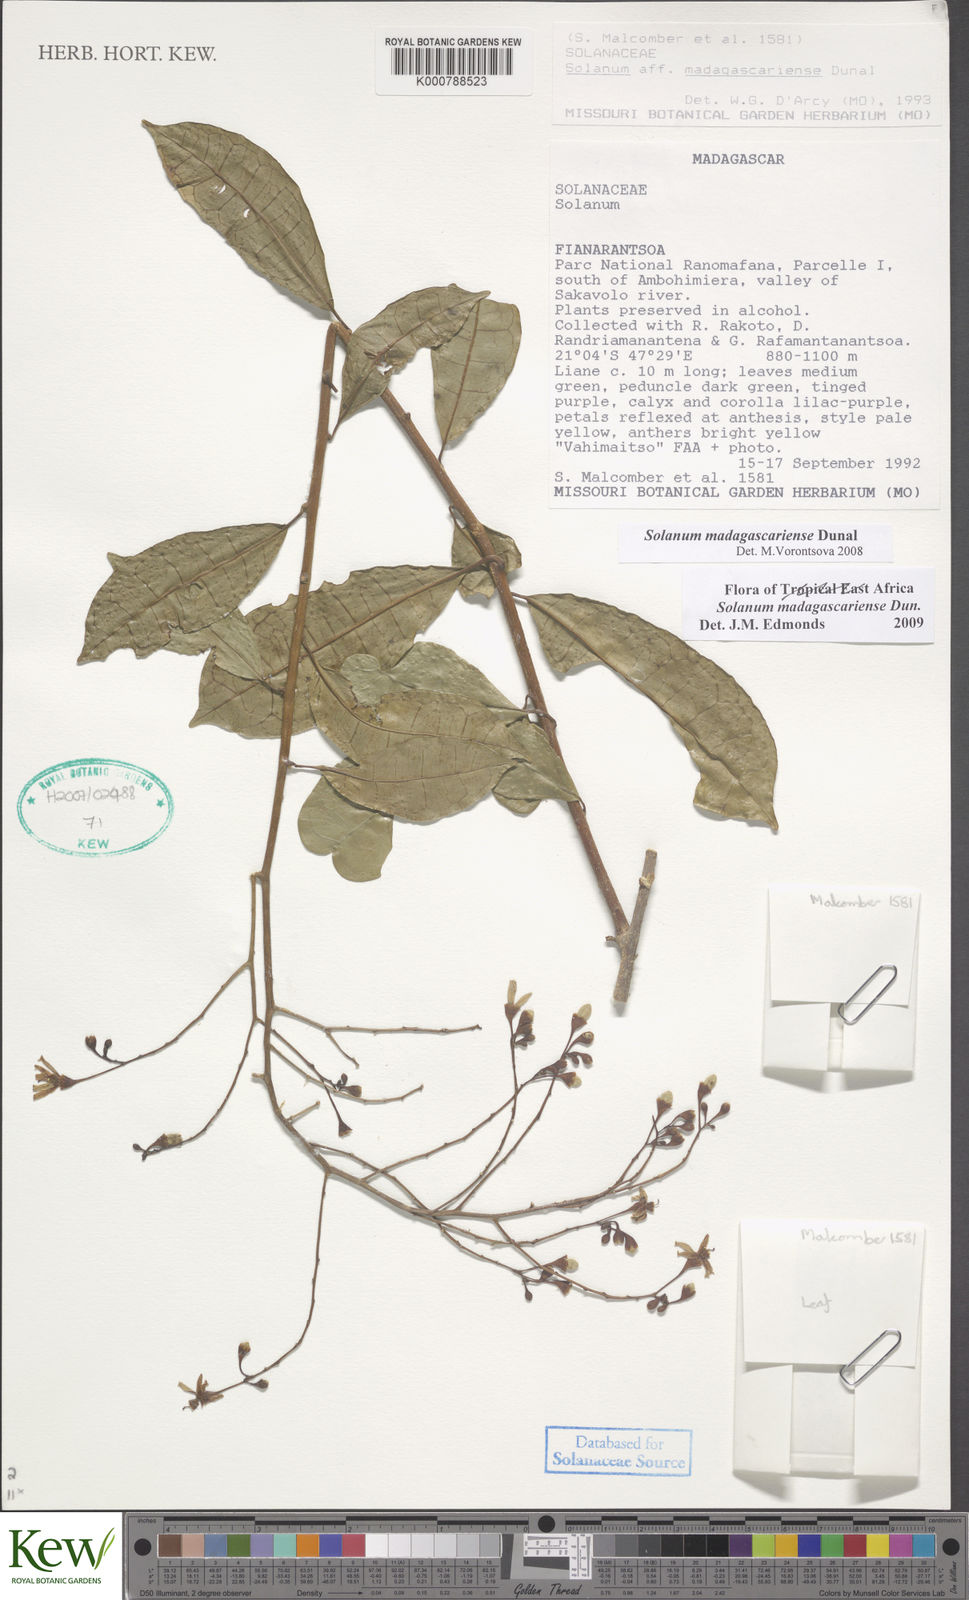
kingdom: Plantae
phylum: Tracheophyta
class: Magnoliopsida
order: Solanales
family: Solanaceae
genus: Solanum
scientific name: Solanum madagascariense
